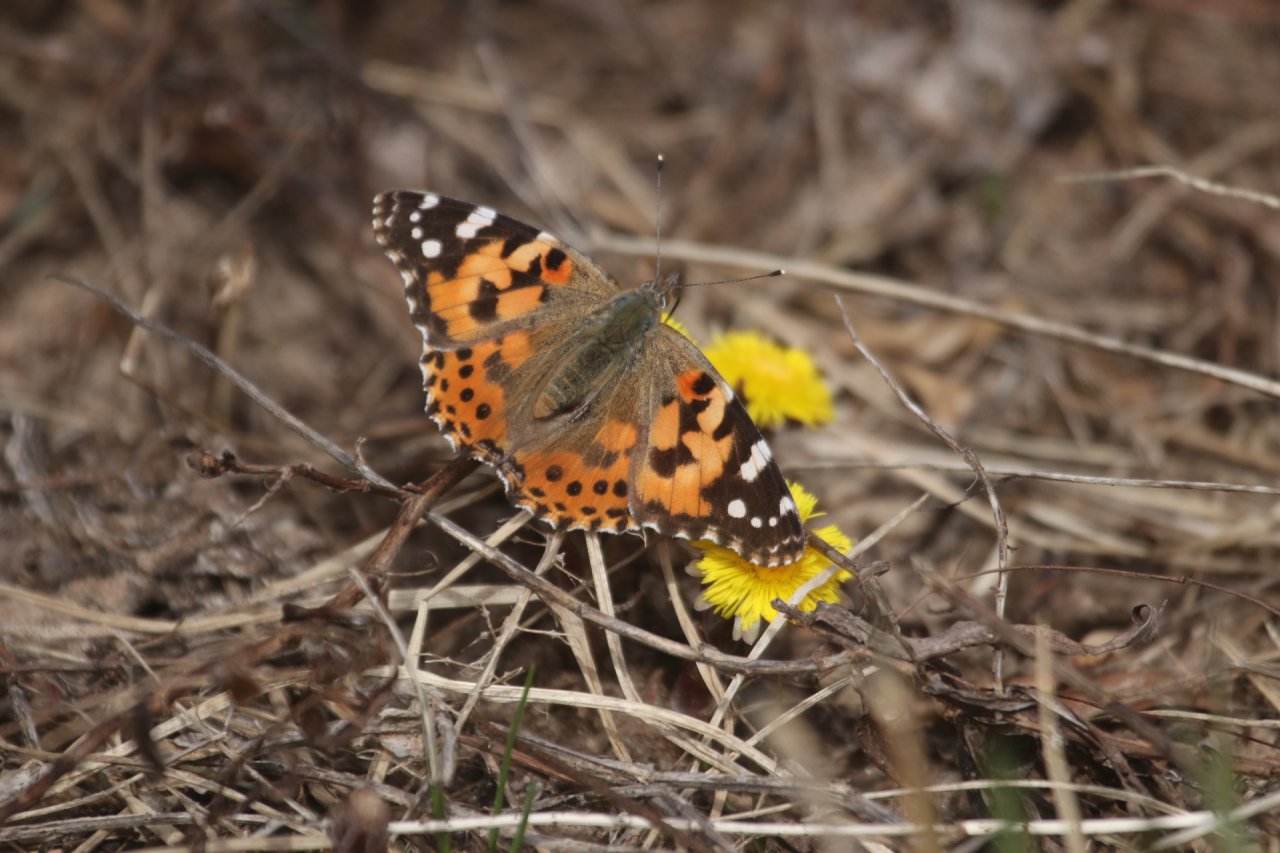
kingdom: Animalia
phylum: Arthropoda
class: Insecta
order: Lepidoptera
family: Nymphalidae
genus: Vanessa
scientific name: Vanessa cardui
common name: Painted Lady
